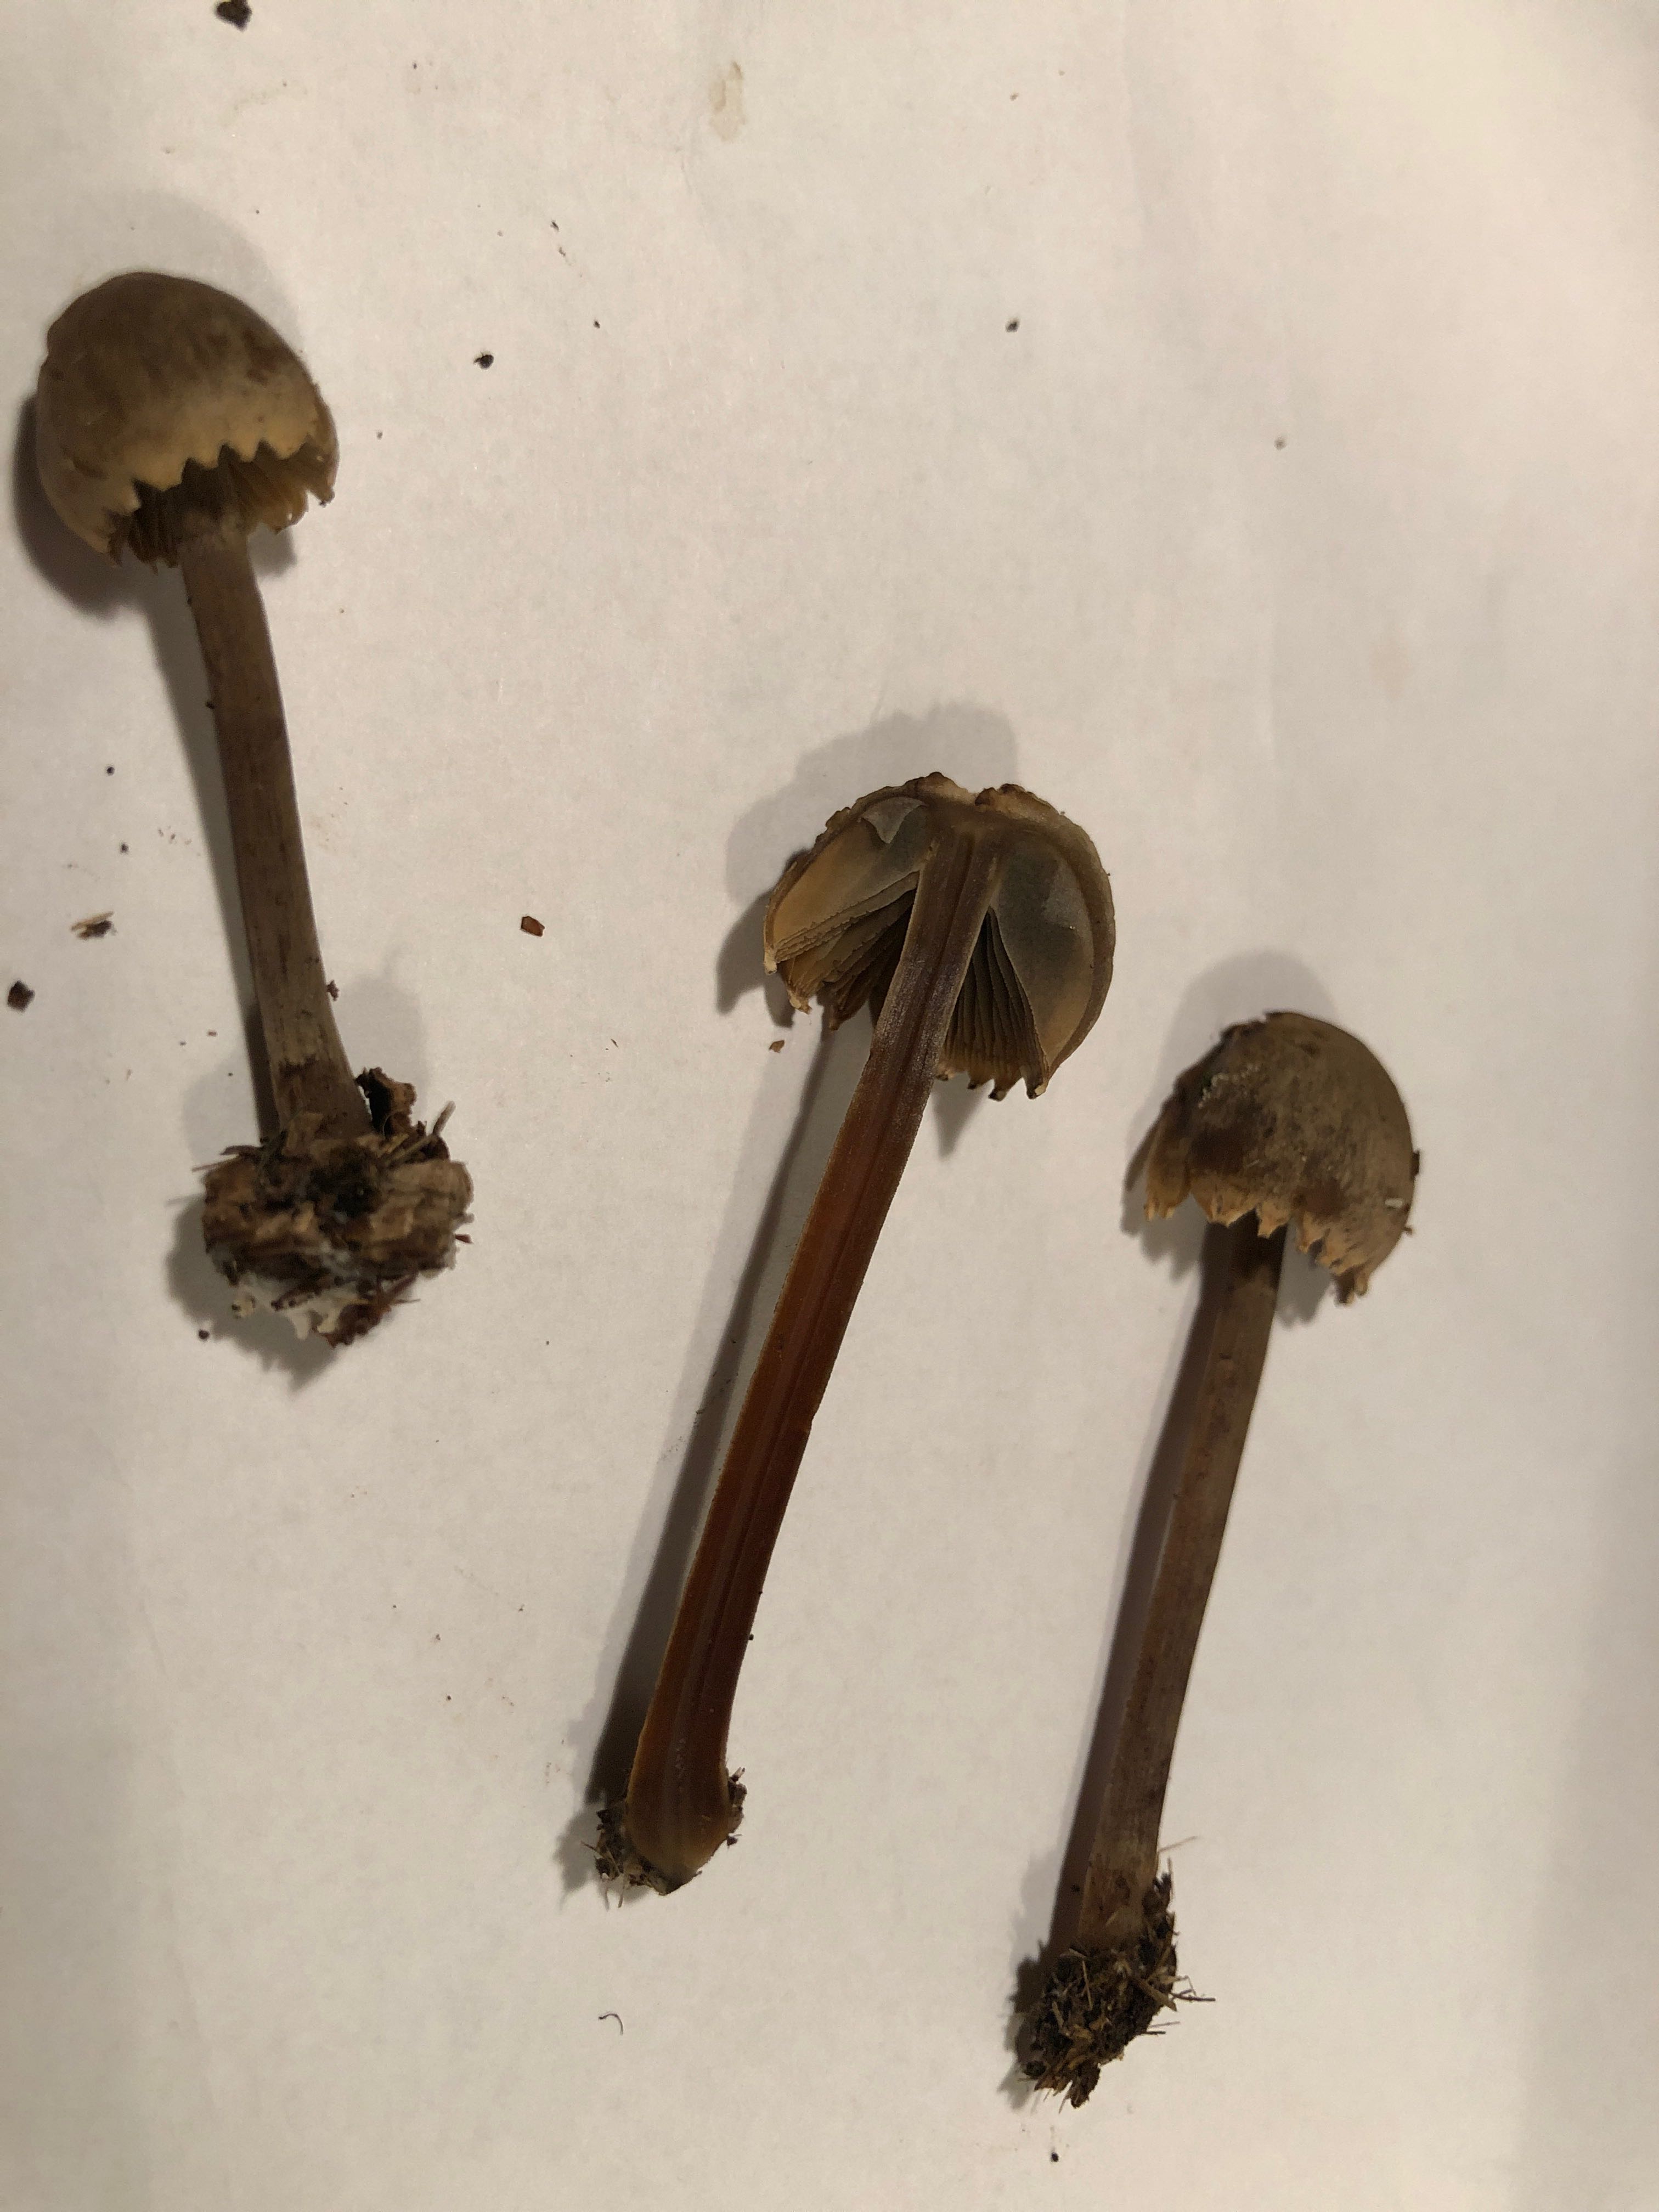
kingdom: Fungi
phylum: Basidiomycota
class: Agaricomycetes
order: Agaricales
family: Bolbitiaceae
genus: Panaeolus
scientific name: Panaeolus papilionaceus
